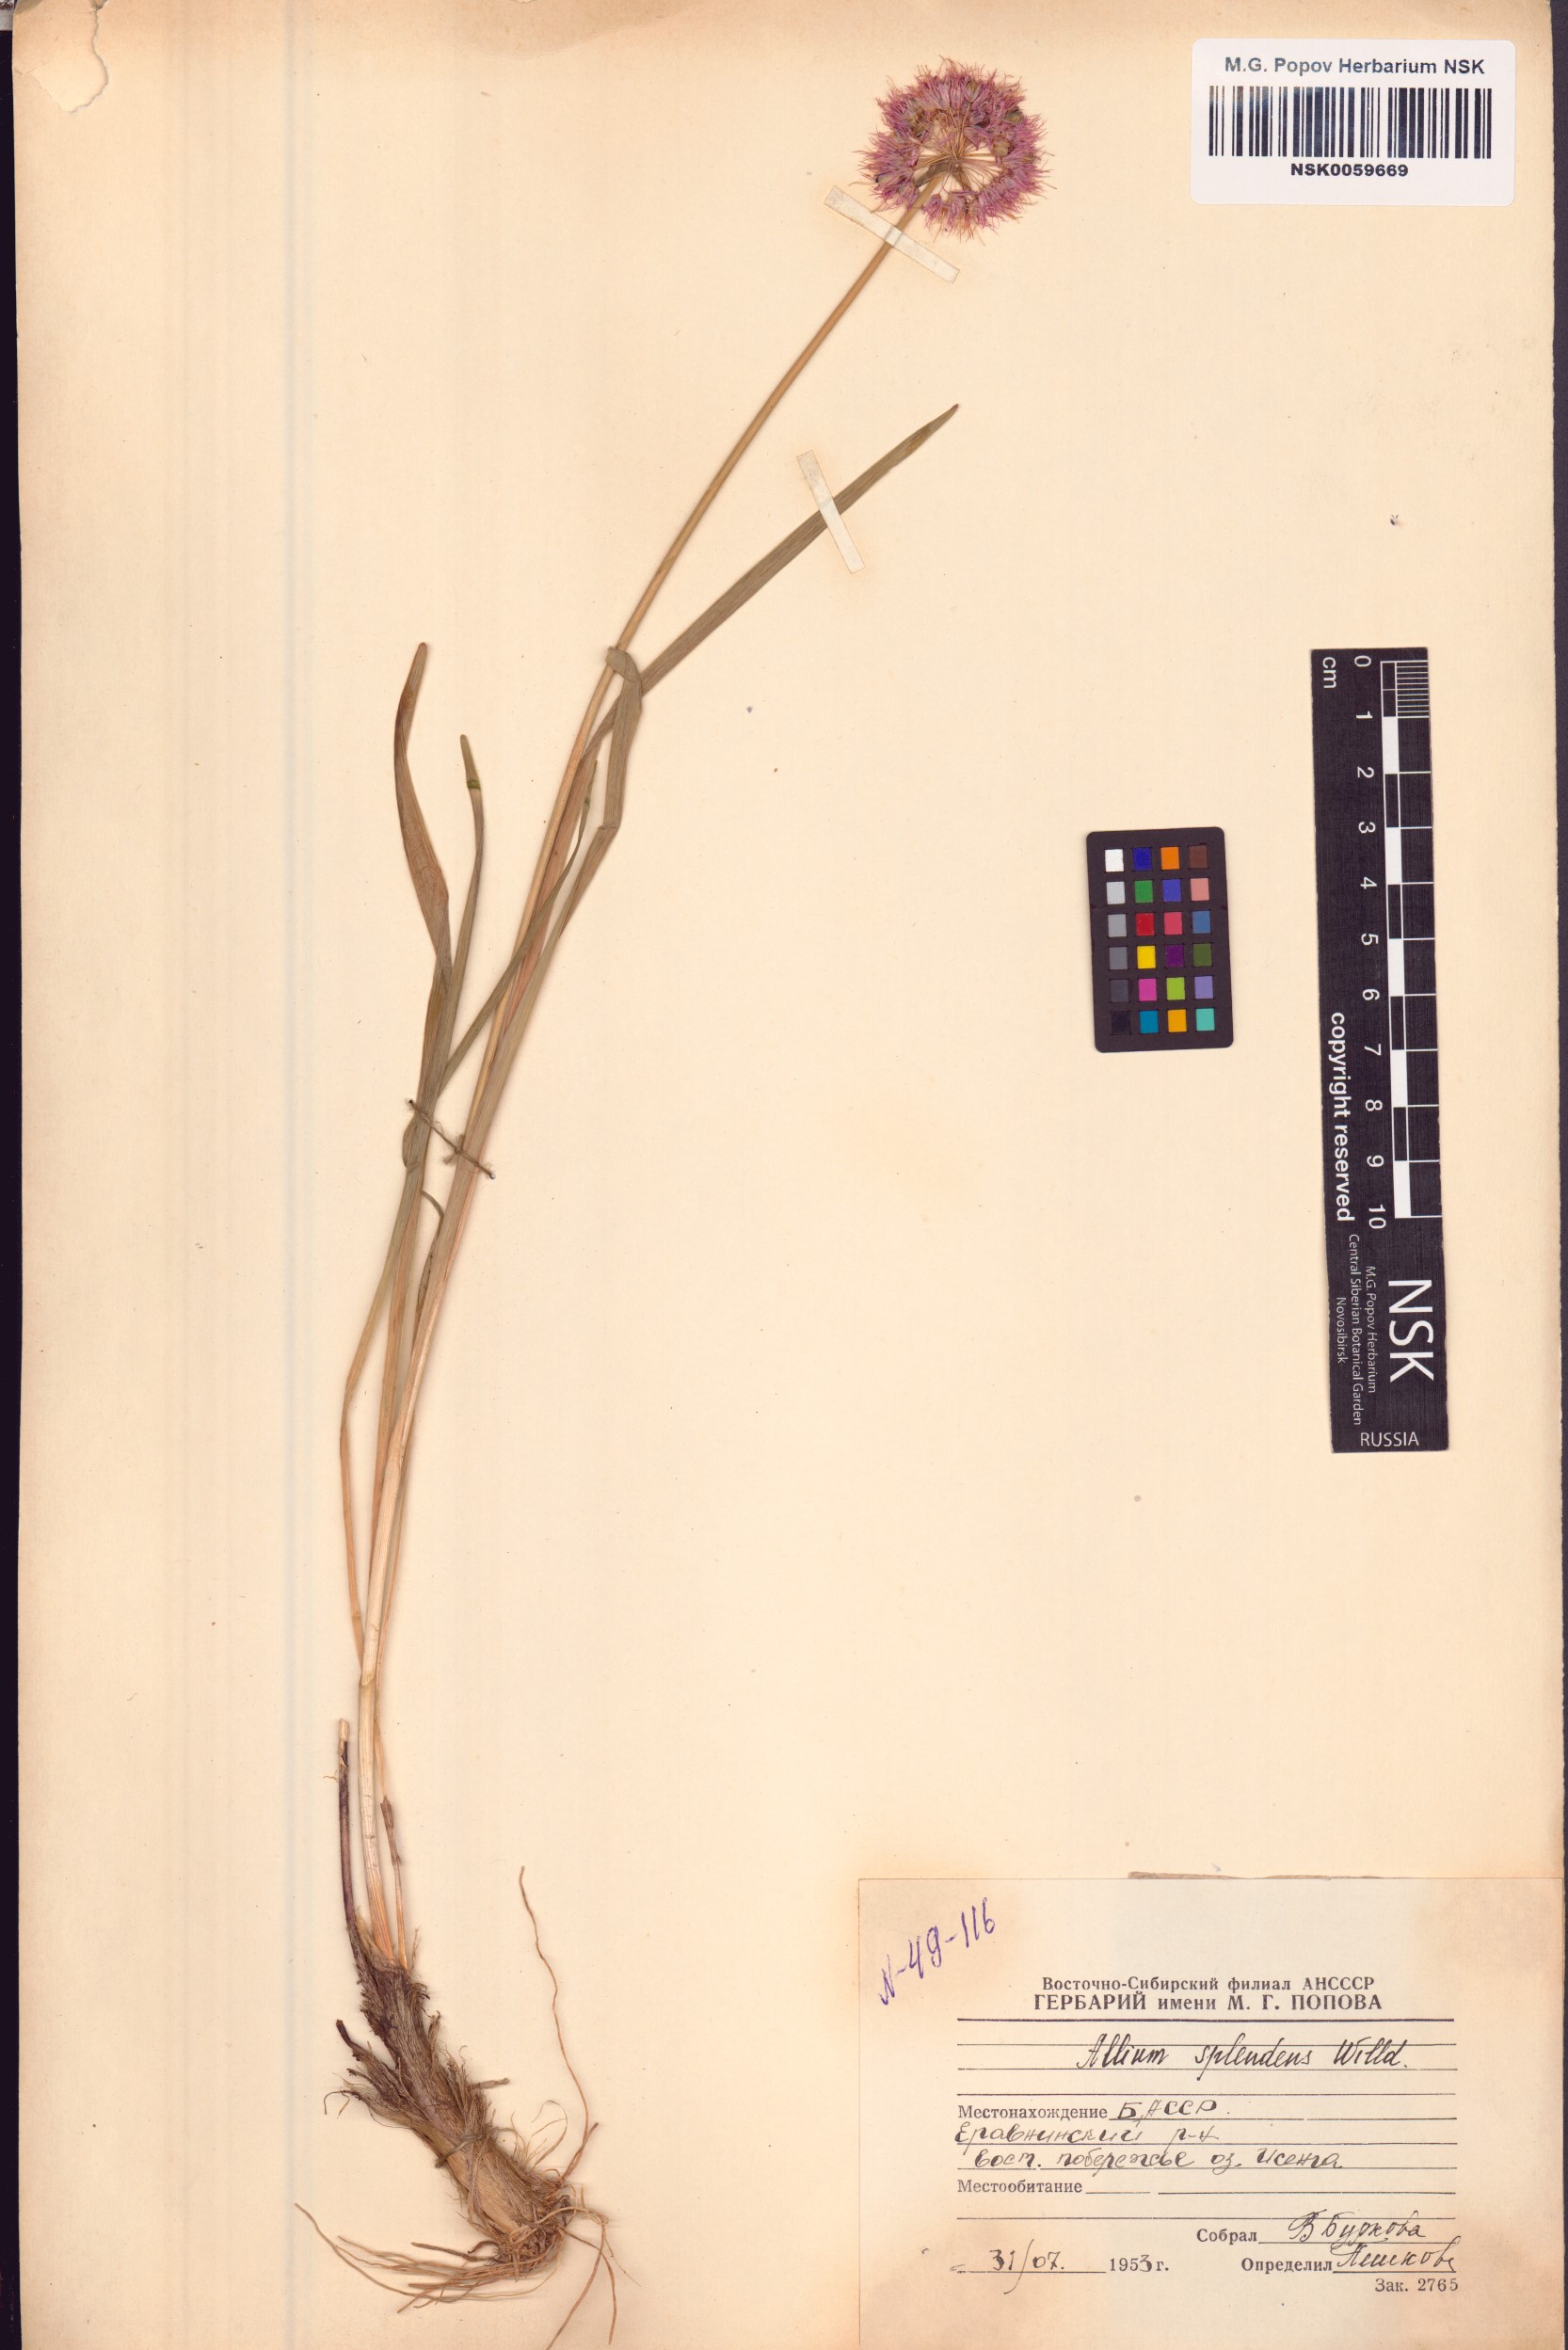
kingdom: Plantae
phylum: Tracheophyta
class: Liliopsida
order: Asparagales
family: Amaryllidaceae
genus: Allium
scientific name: Allium splendens
